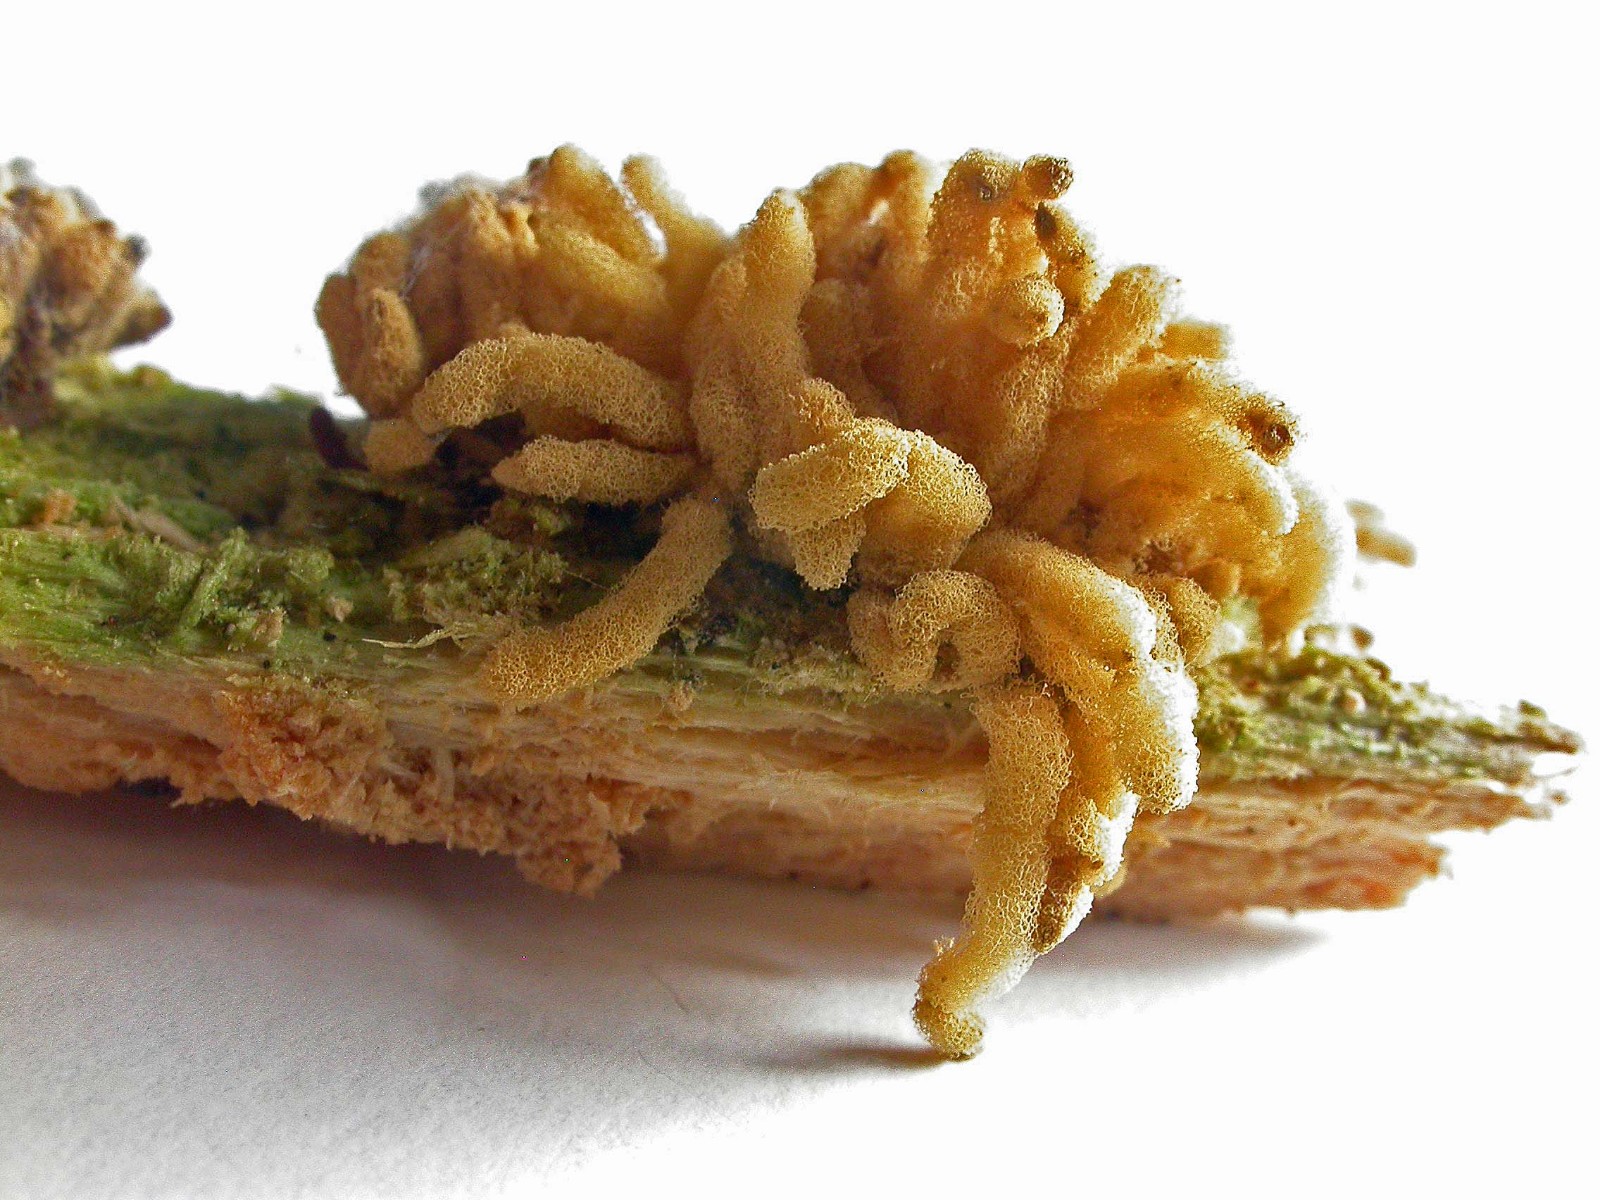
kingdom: Protozoa
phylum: Mycetozoa
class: Myxomycetes
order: Trichiales
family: Arcyriaceae
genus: Arcyria
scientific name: Arcyria obvelata
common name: okkergul skålsvøb
